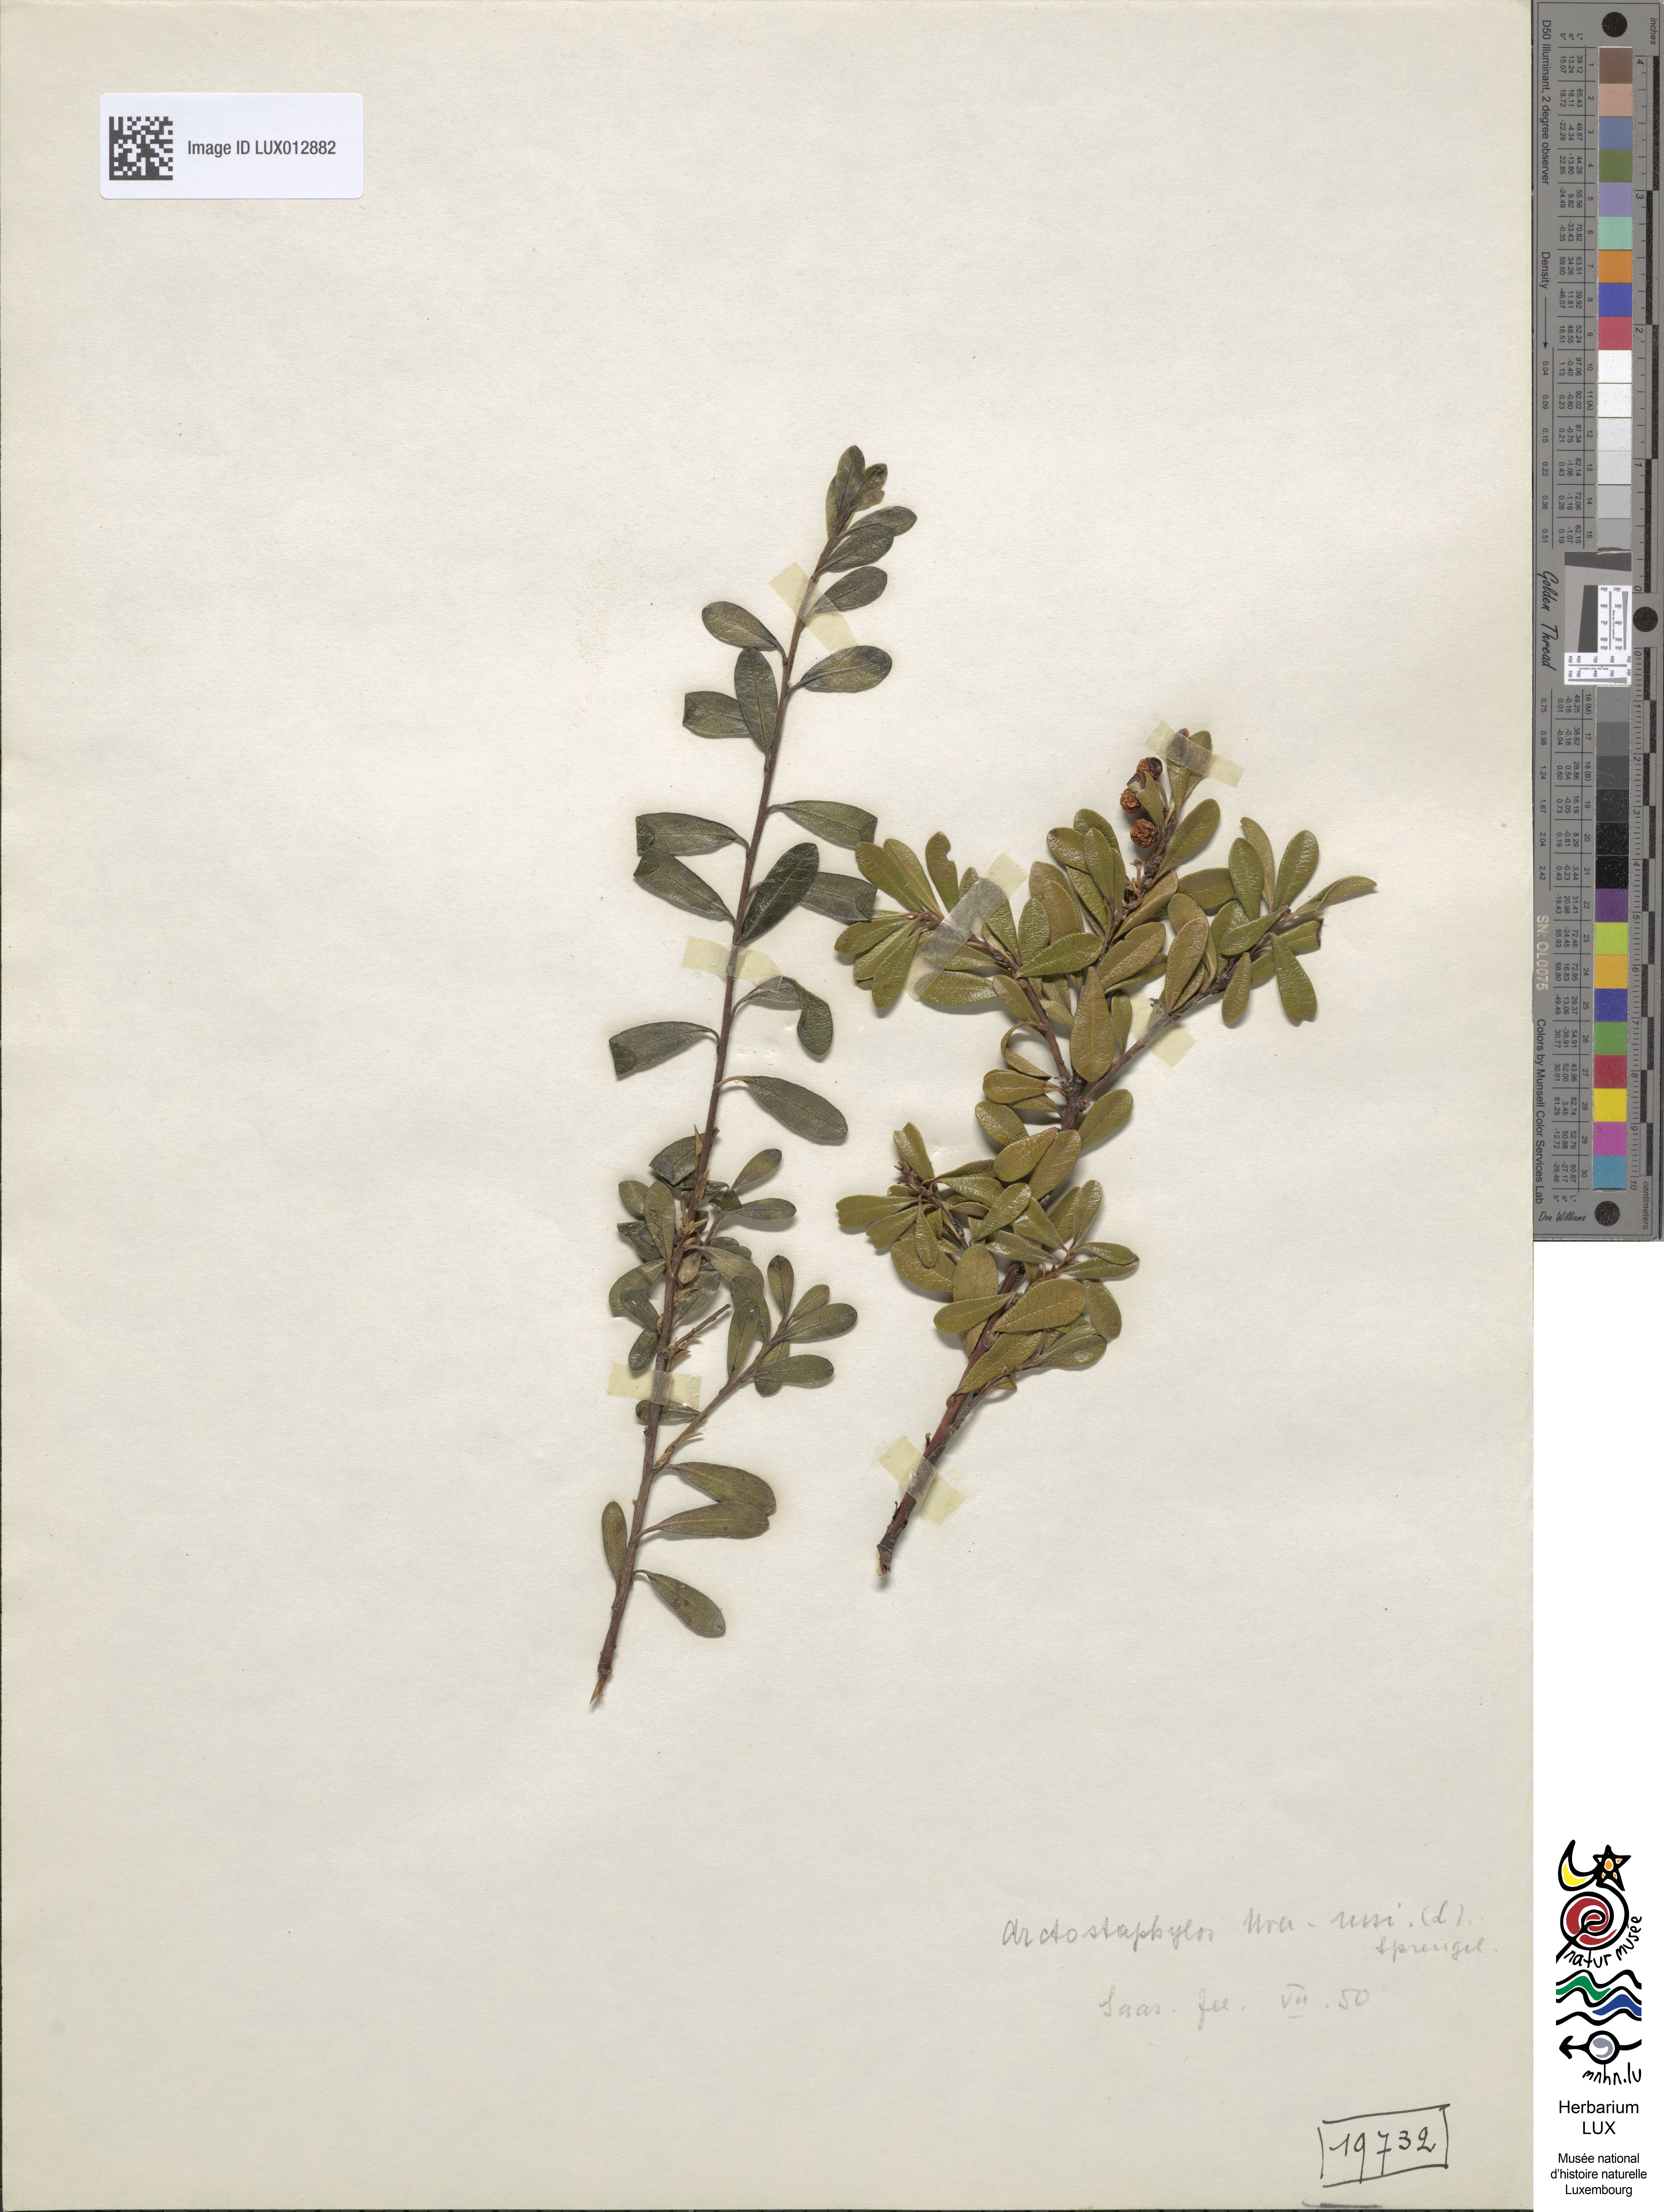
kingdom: Plantae
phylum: Tracheophyta
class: Magnoliopsida
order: Ericales
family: Ericaceae
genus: Arctostaphylos
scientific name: Arctostaphylos uva-ursi
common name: Bearberry
